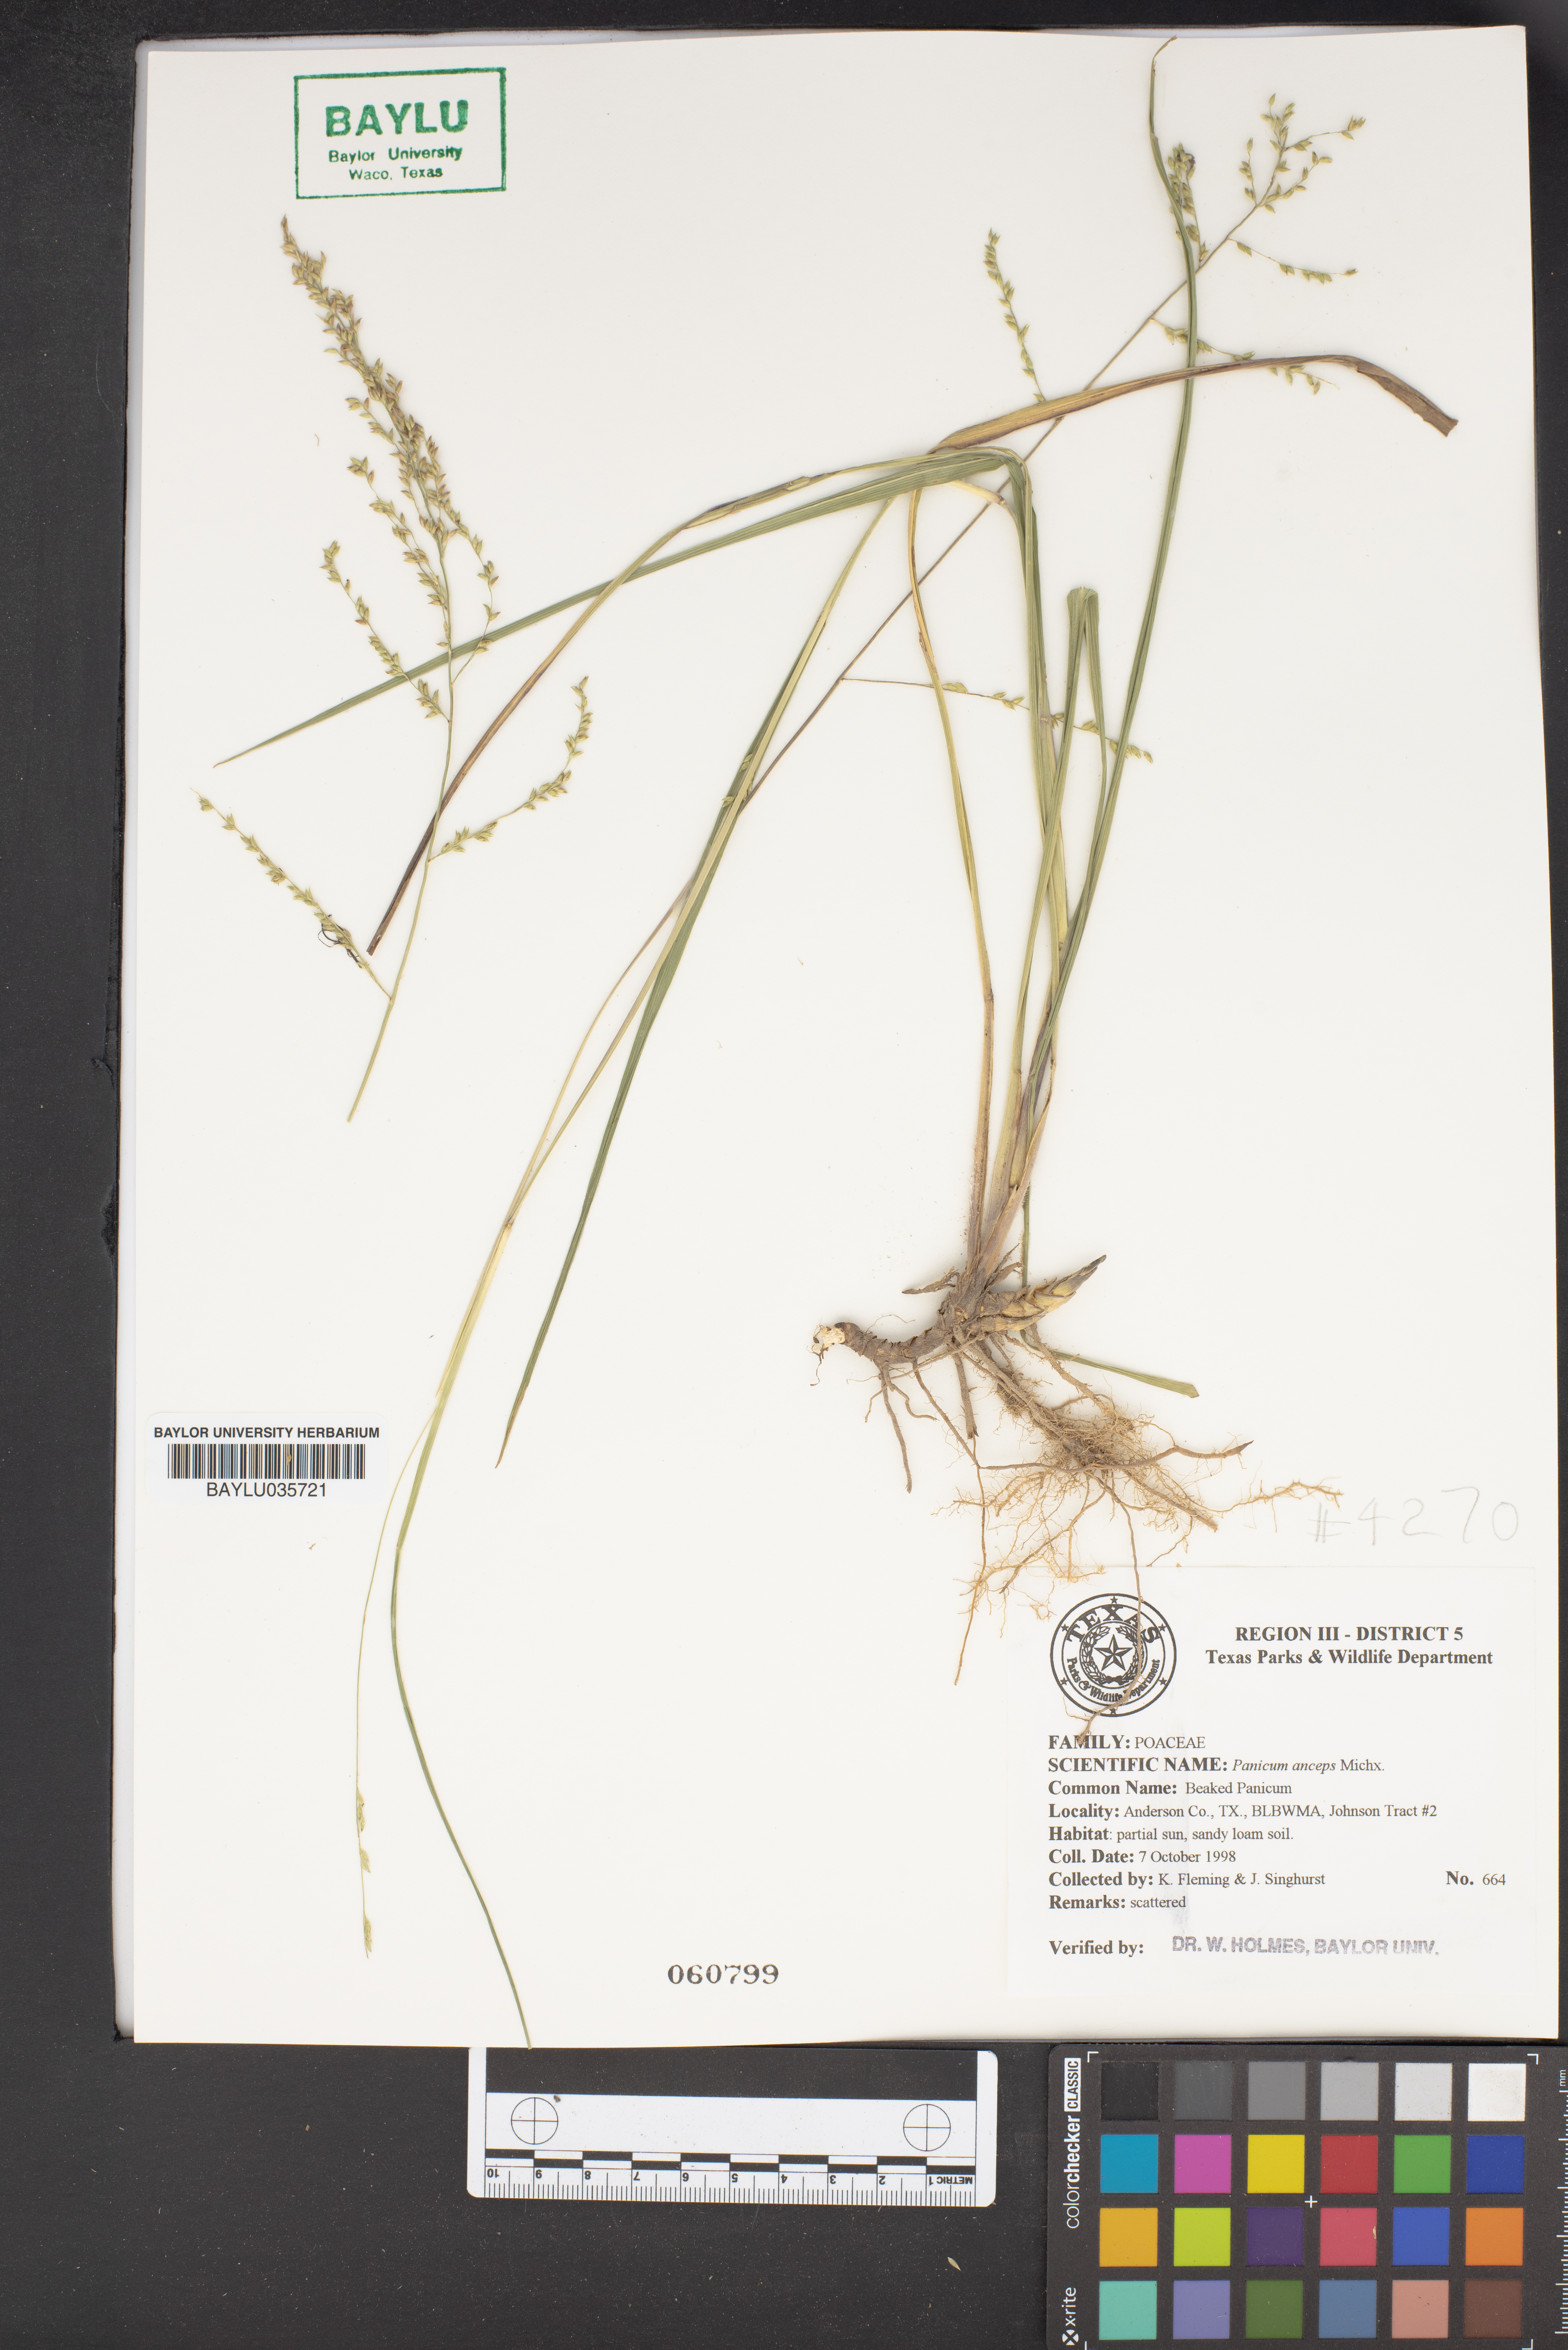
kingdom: Plantae
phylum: Tracheophyta
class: Liliopsida
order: Poales
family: Poaceae
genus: Coleataenia
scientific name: Coleataenia anceps
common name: Beaked panic grass
